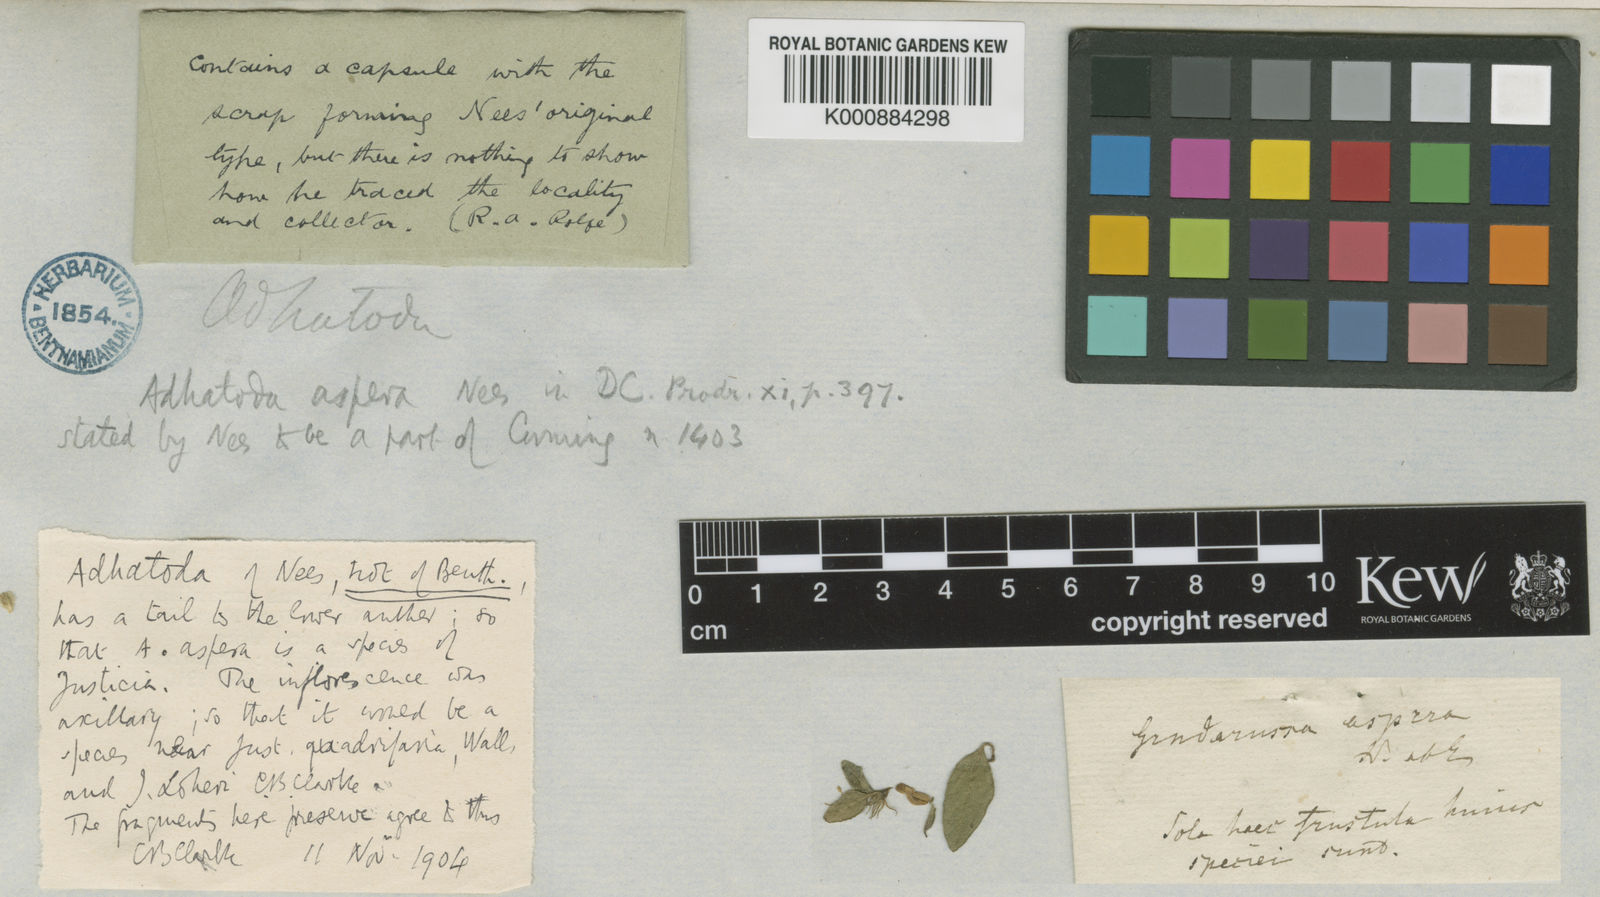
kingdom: Plantae
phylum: Tracheophyta
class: Magnoliopsida
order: Lamiales
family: Acanthaceae
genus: Cynarospermum
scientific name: Cynarospermum asperrimum
